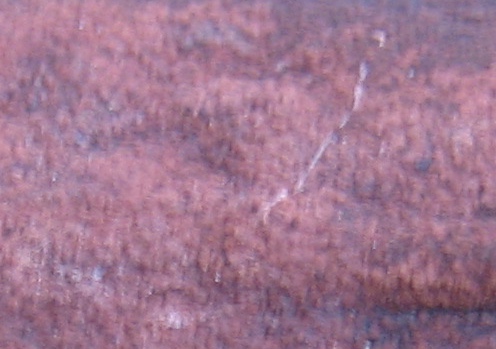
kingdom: Fungi
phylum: Ascomycota
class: Sordariomycetes
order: Xylariales
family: Hypoxylaceae
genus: Hypoxylon
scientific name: Hypoxylon macrocarpum
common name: skorpe-kulbær
